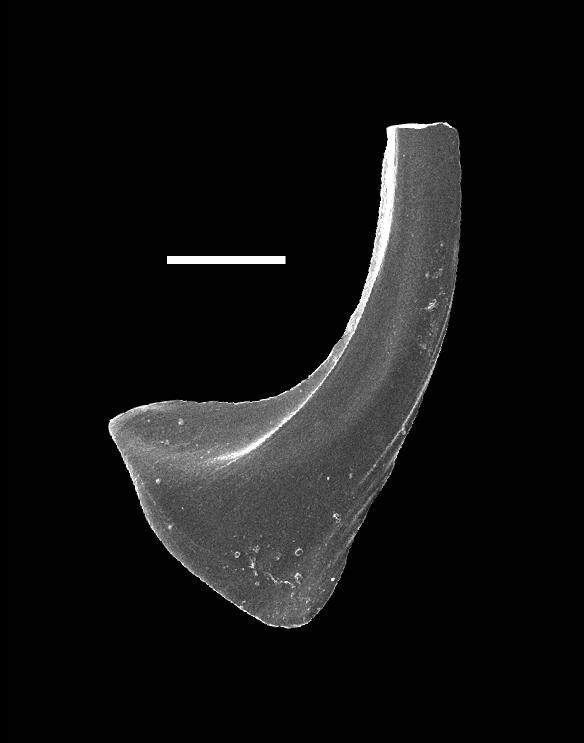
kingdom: Animalia
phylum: Chordata
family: Dapsilodontidae
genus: Dapsilodus
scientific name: Dapsilodus
